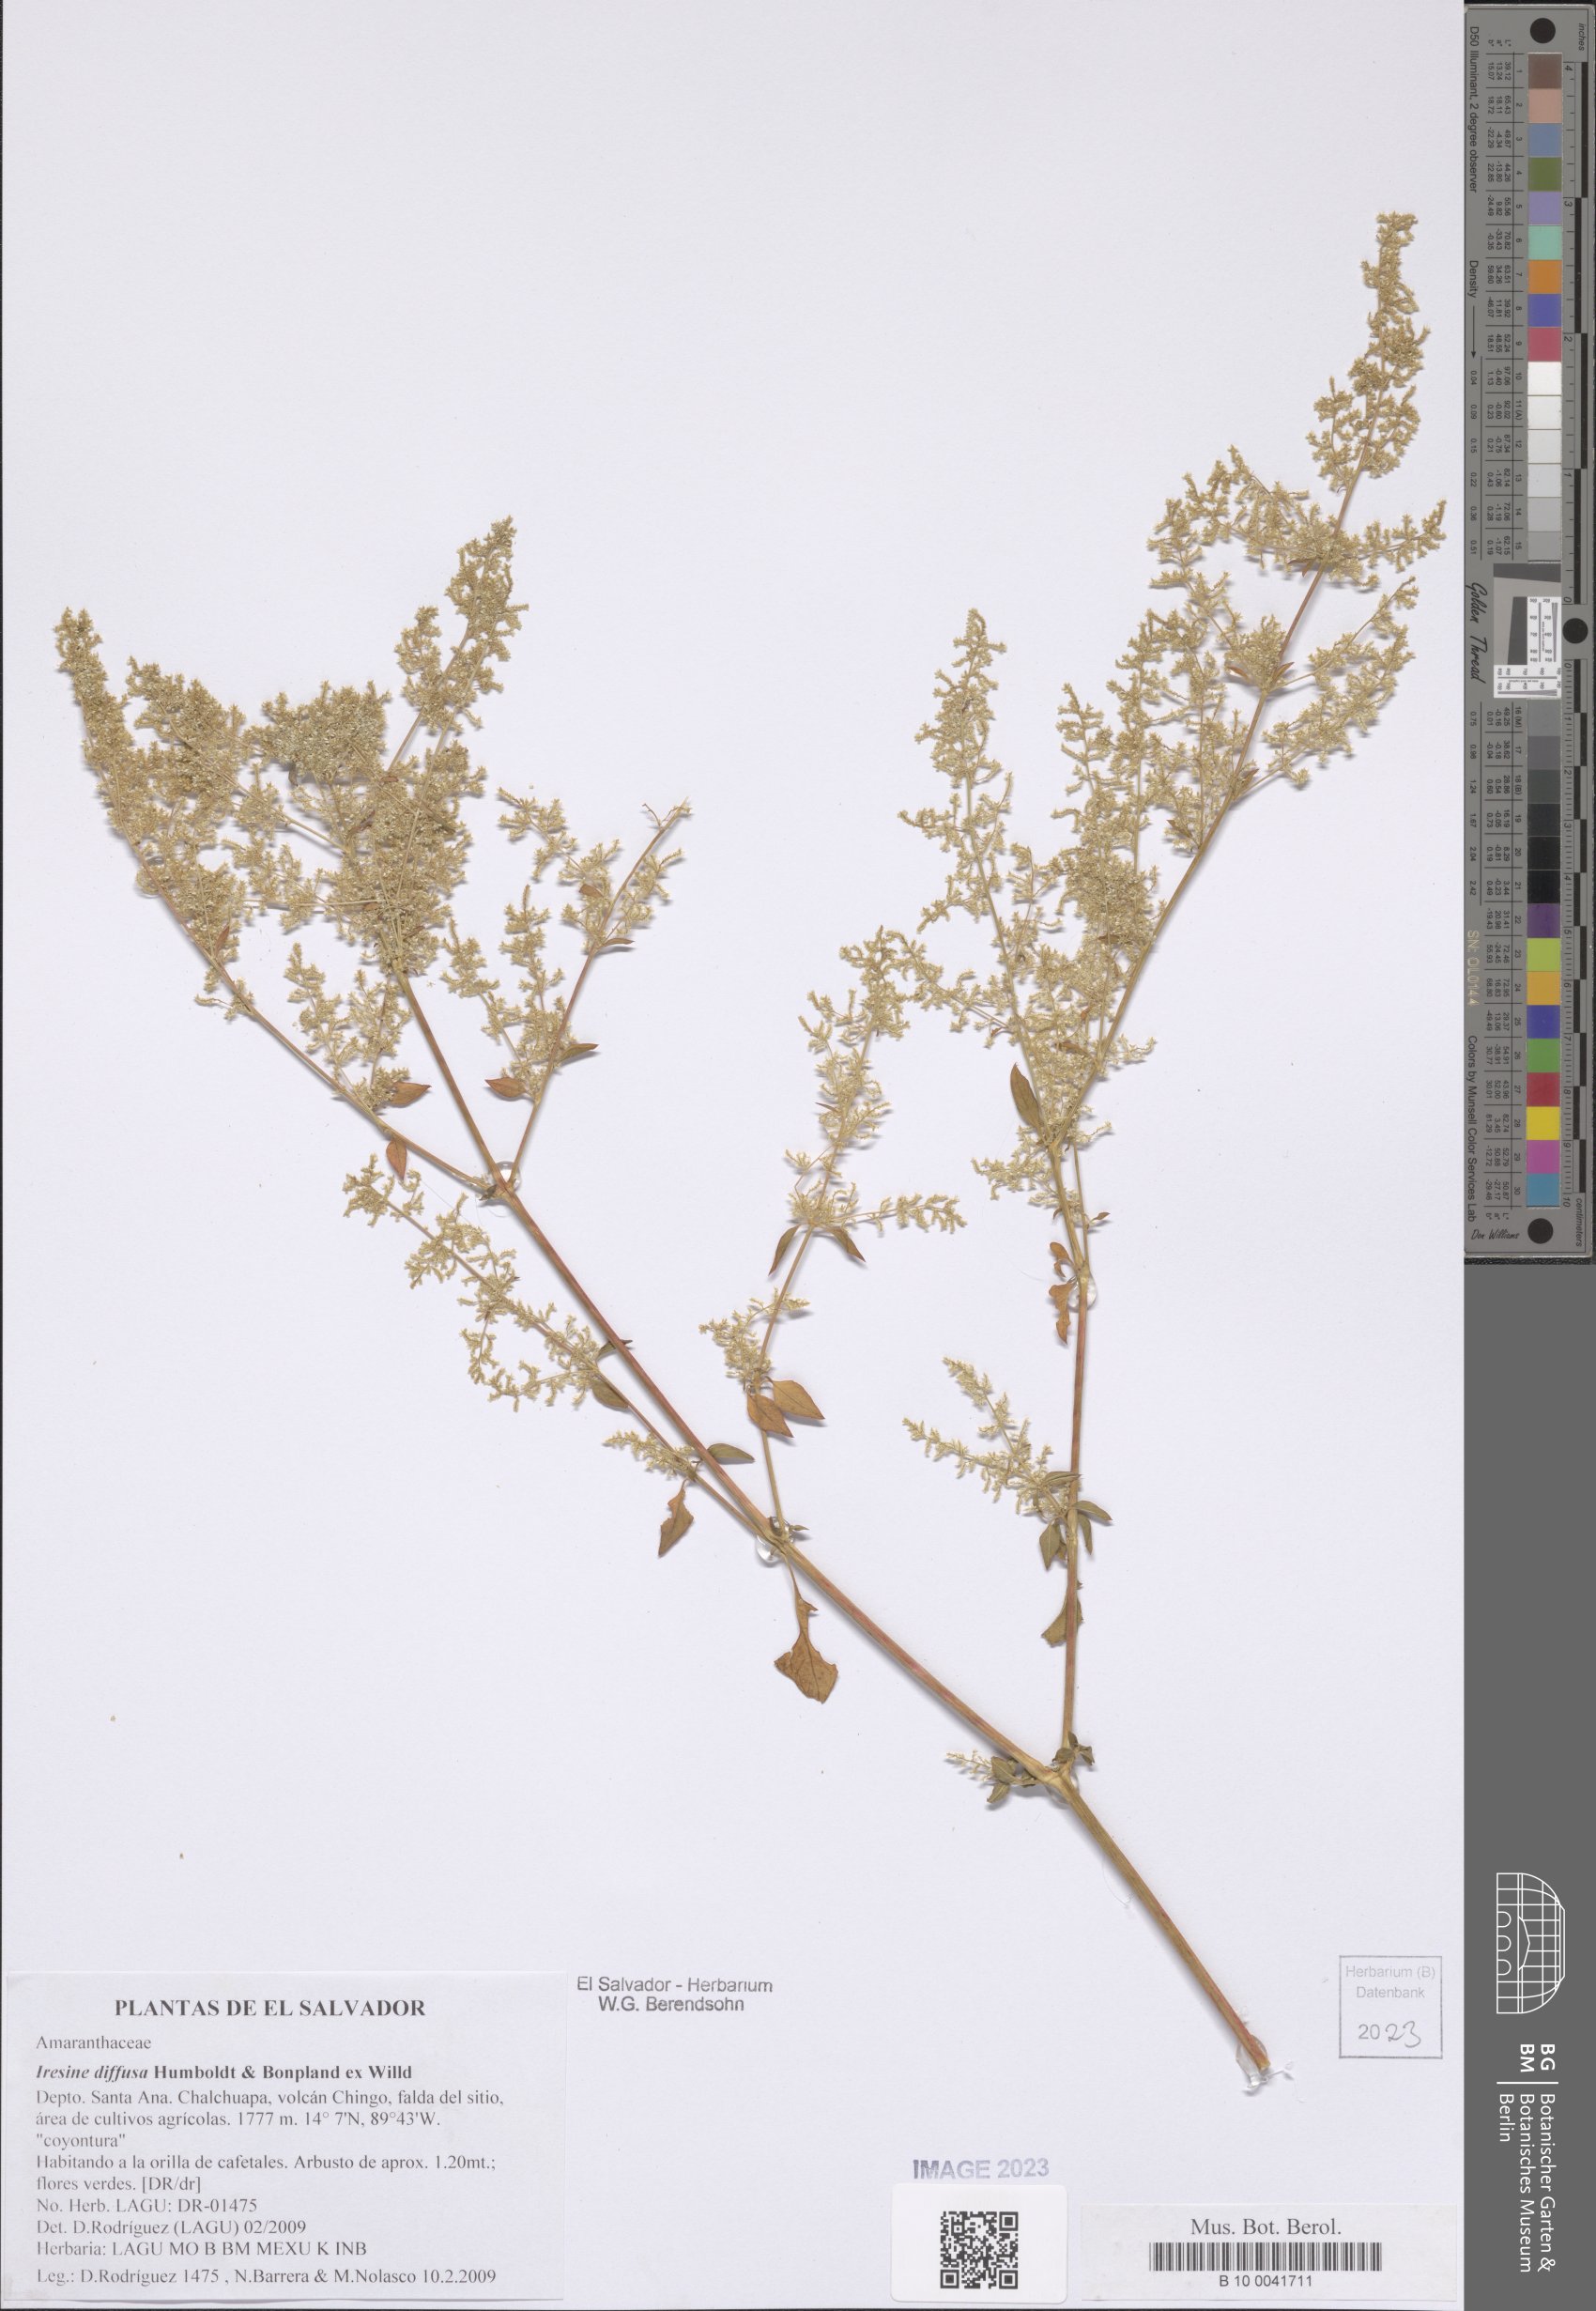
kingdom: Plantae
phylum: Tracheophyta
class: Magnoliopsida
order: Caryophyllales
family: Amaranthaceae
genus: Iresine
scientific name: Iresine diffusa
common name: Juba's-bush
